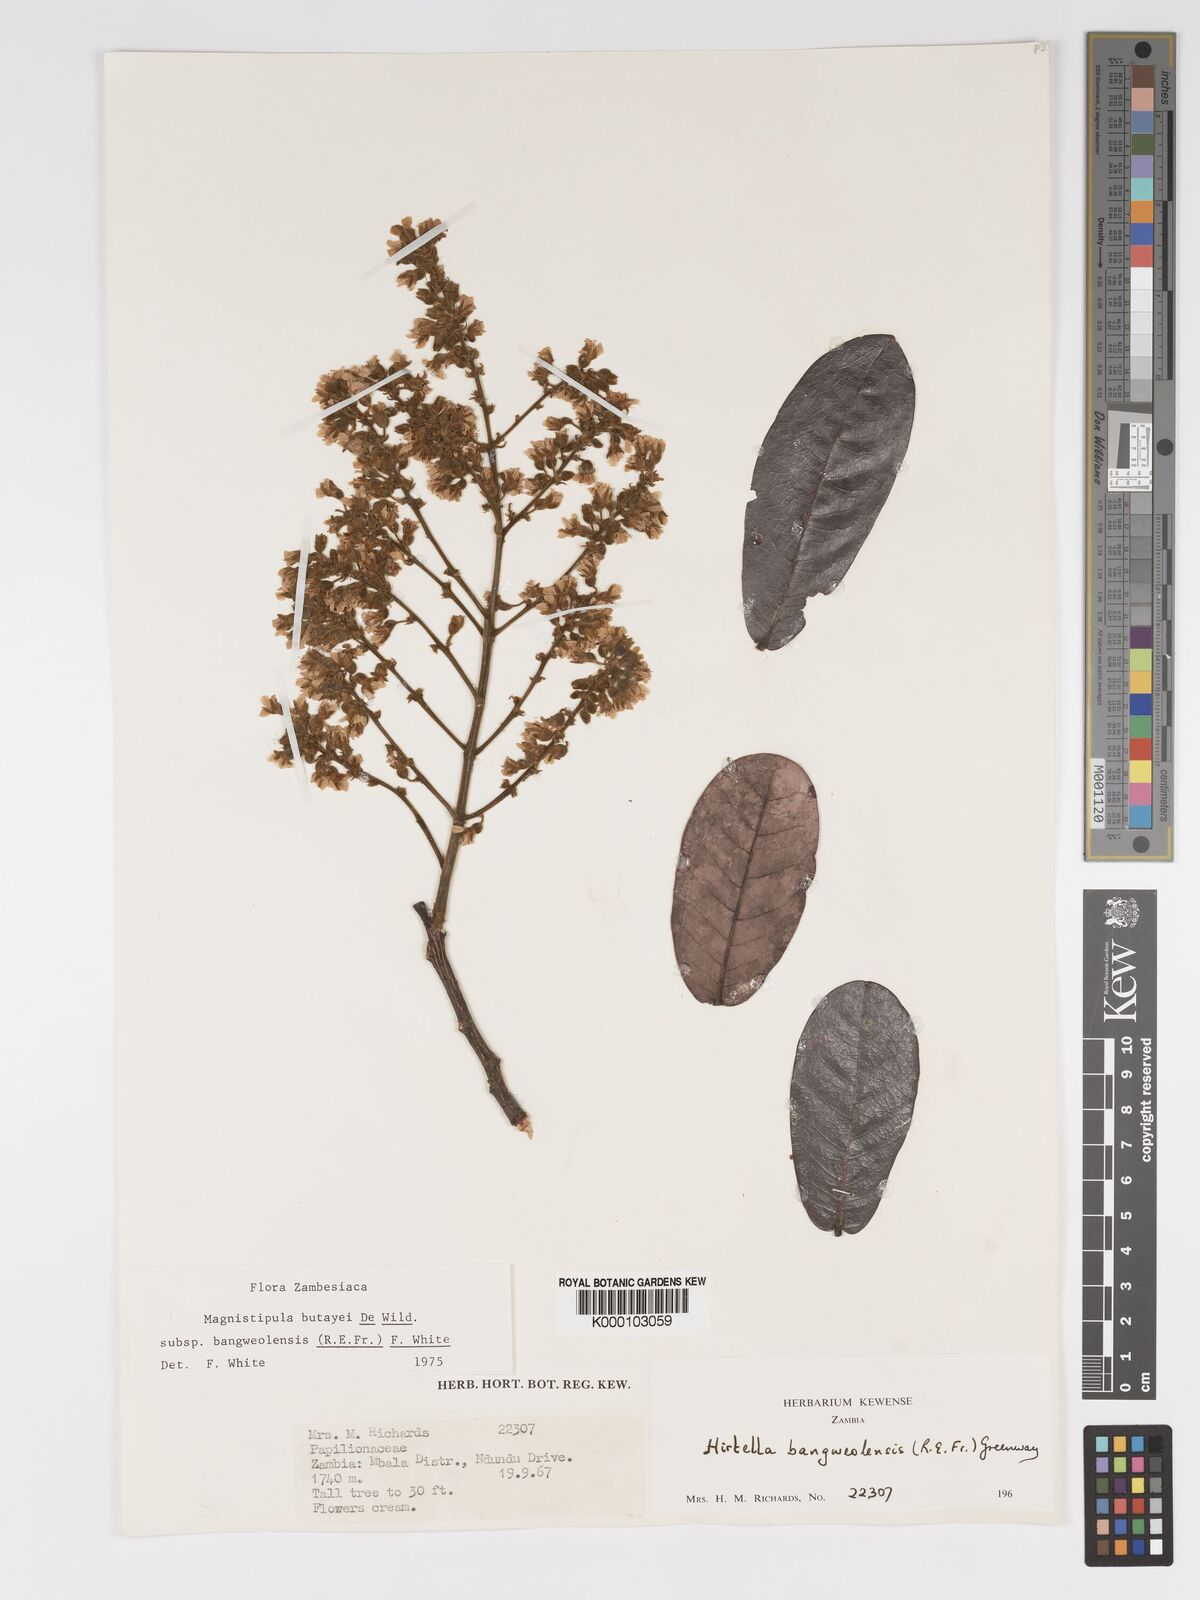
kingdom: Plantae
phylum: Tracheophyta
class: Magnoliopsida
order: Malpighiales
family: Chrysobalanaceae
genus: Magnistipula
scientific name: Magnistipula butayei
